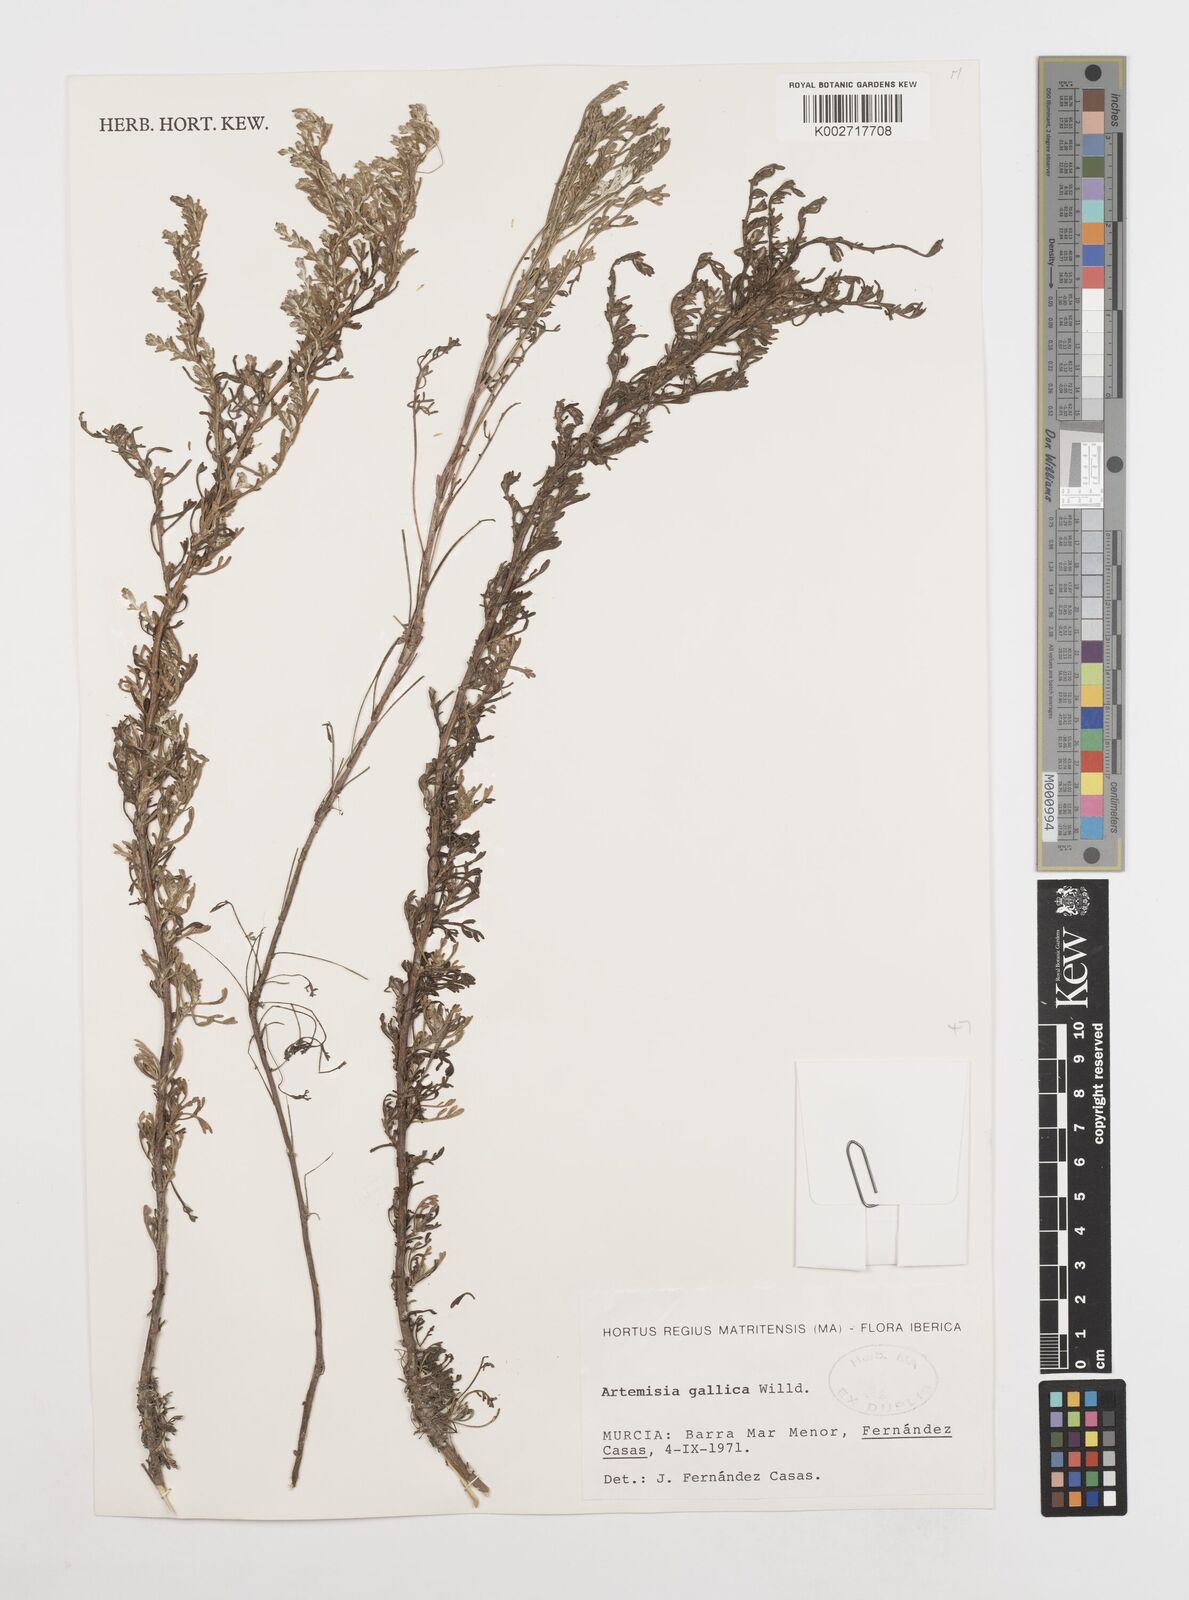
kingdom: Plantae
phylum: Tracheophyta
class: Magnoliopsida
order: Asterales
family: Asteraceae
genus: Artemisia
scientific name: Artemisia campestris
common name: Field wormwood
